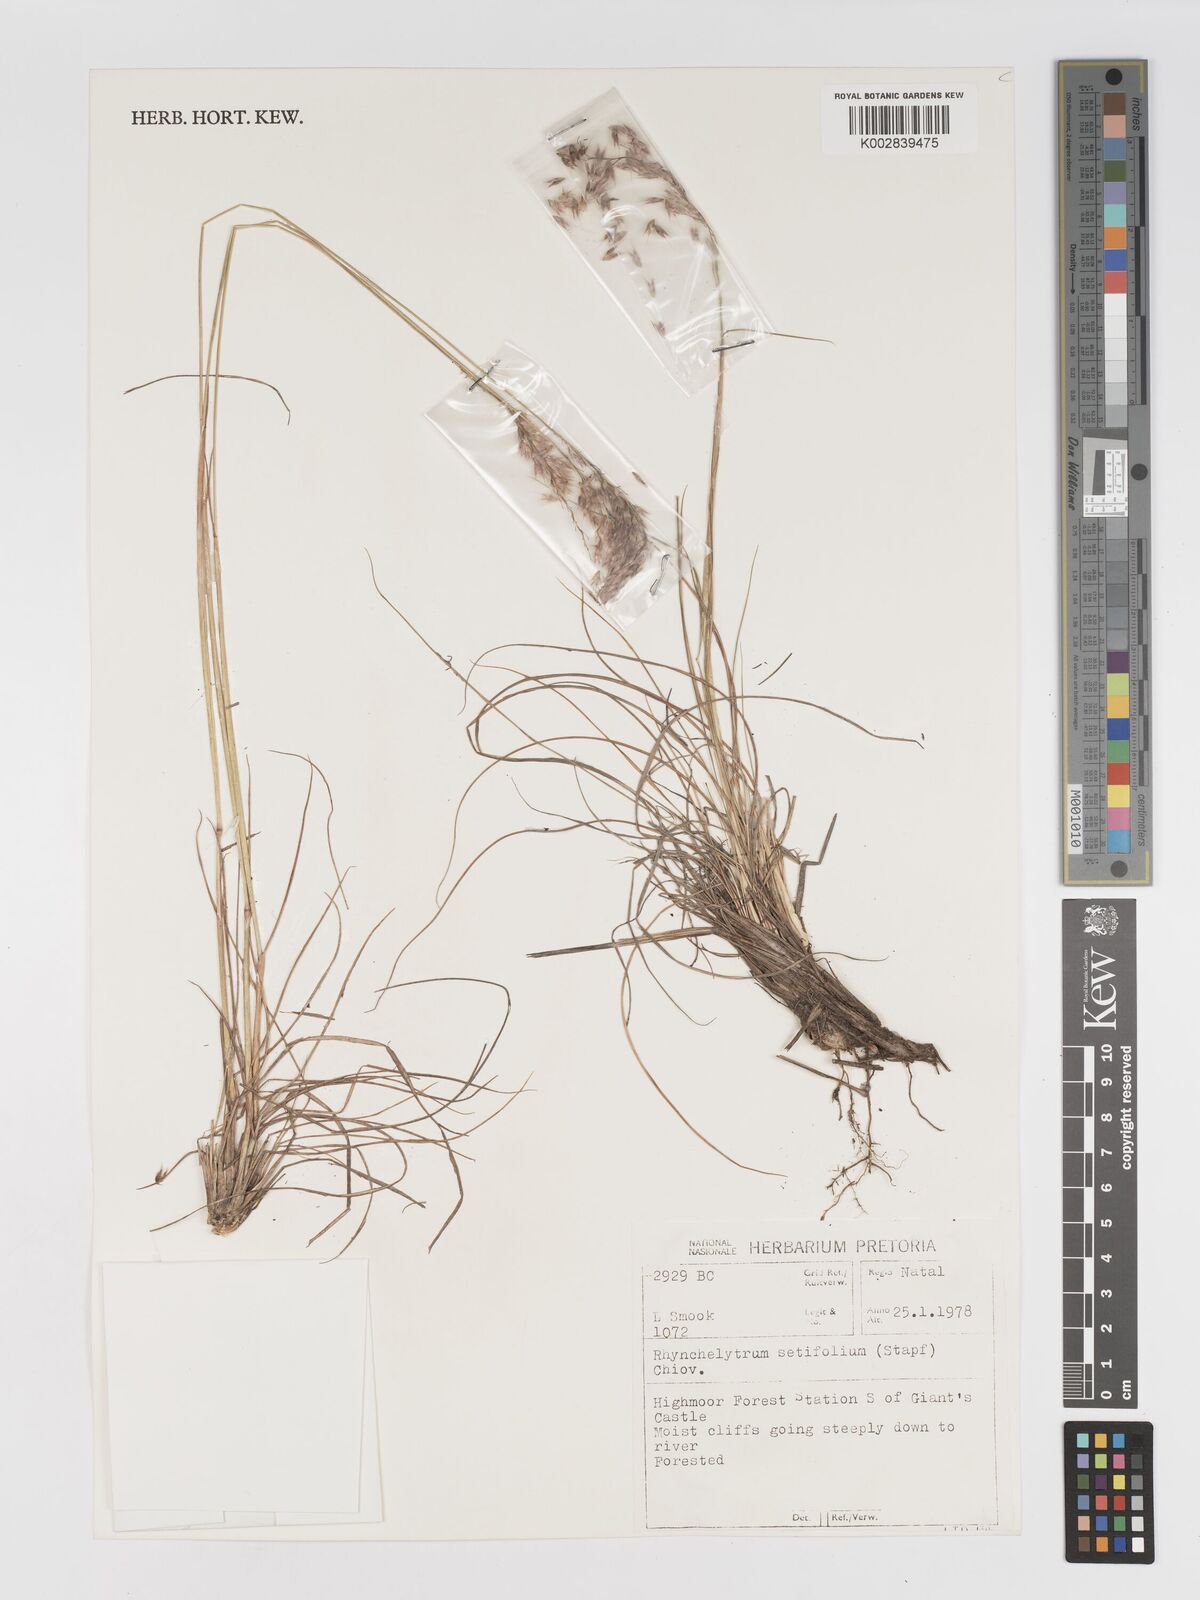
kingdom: Plantae
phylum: Tracheophyta
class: Liliopsida
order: Poales
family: Poaceae
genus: Melinis
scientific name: Melinis nerviglumis
